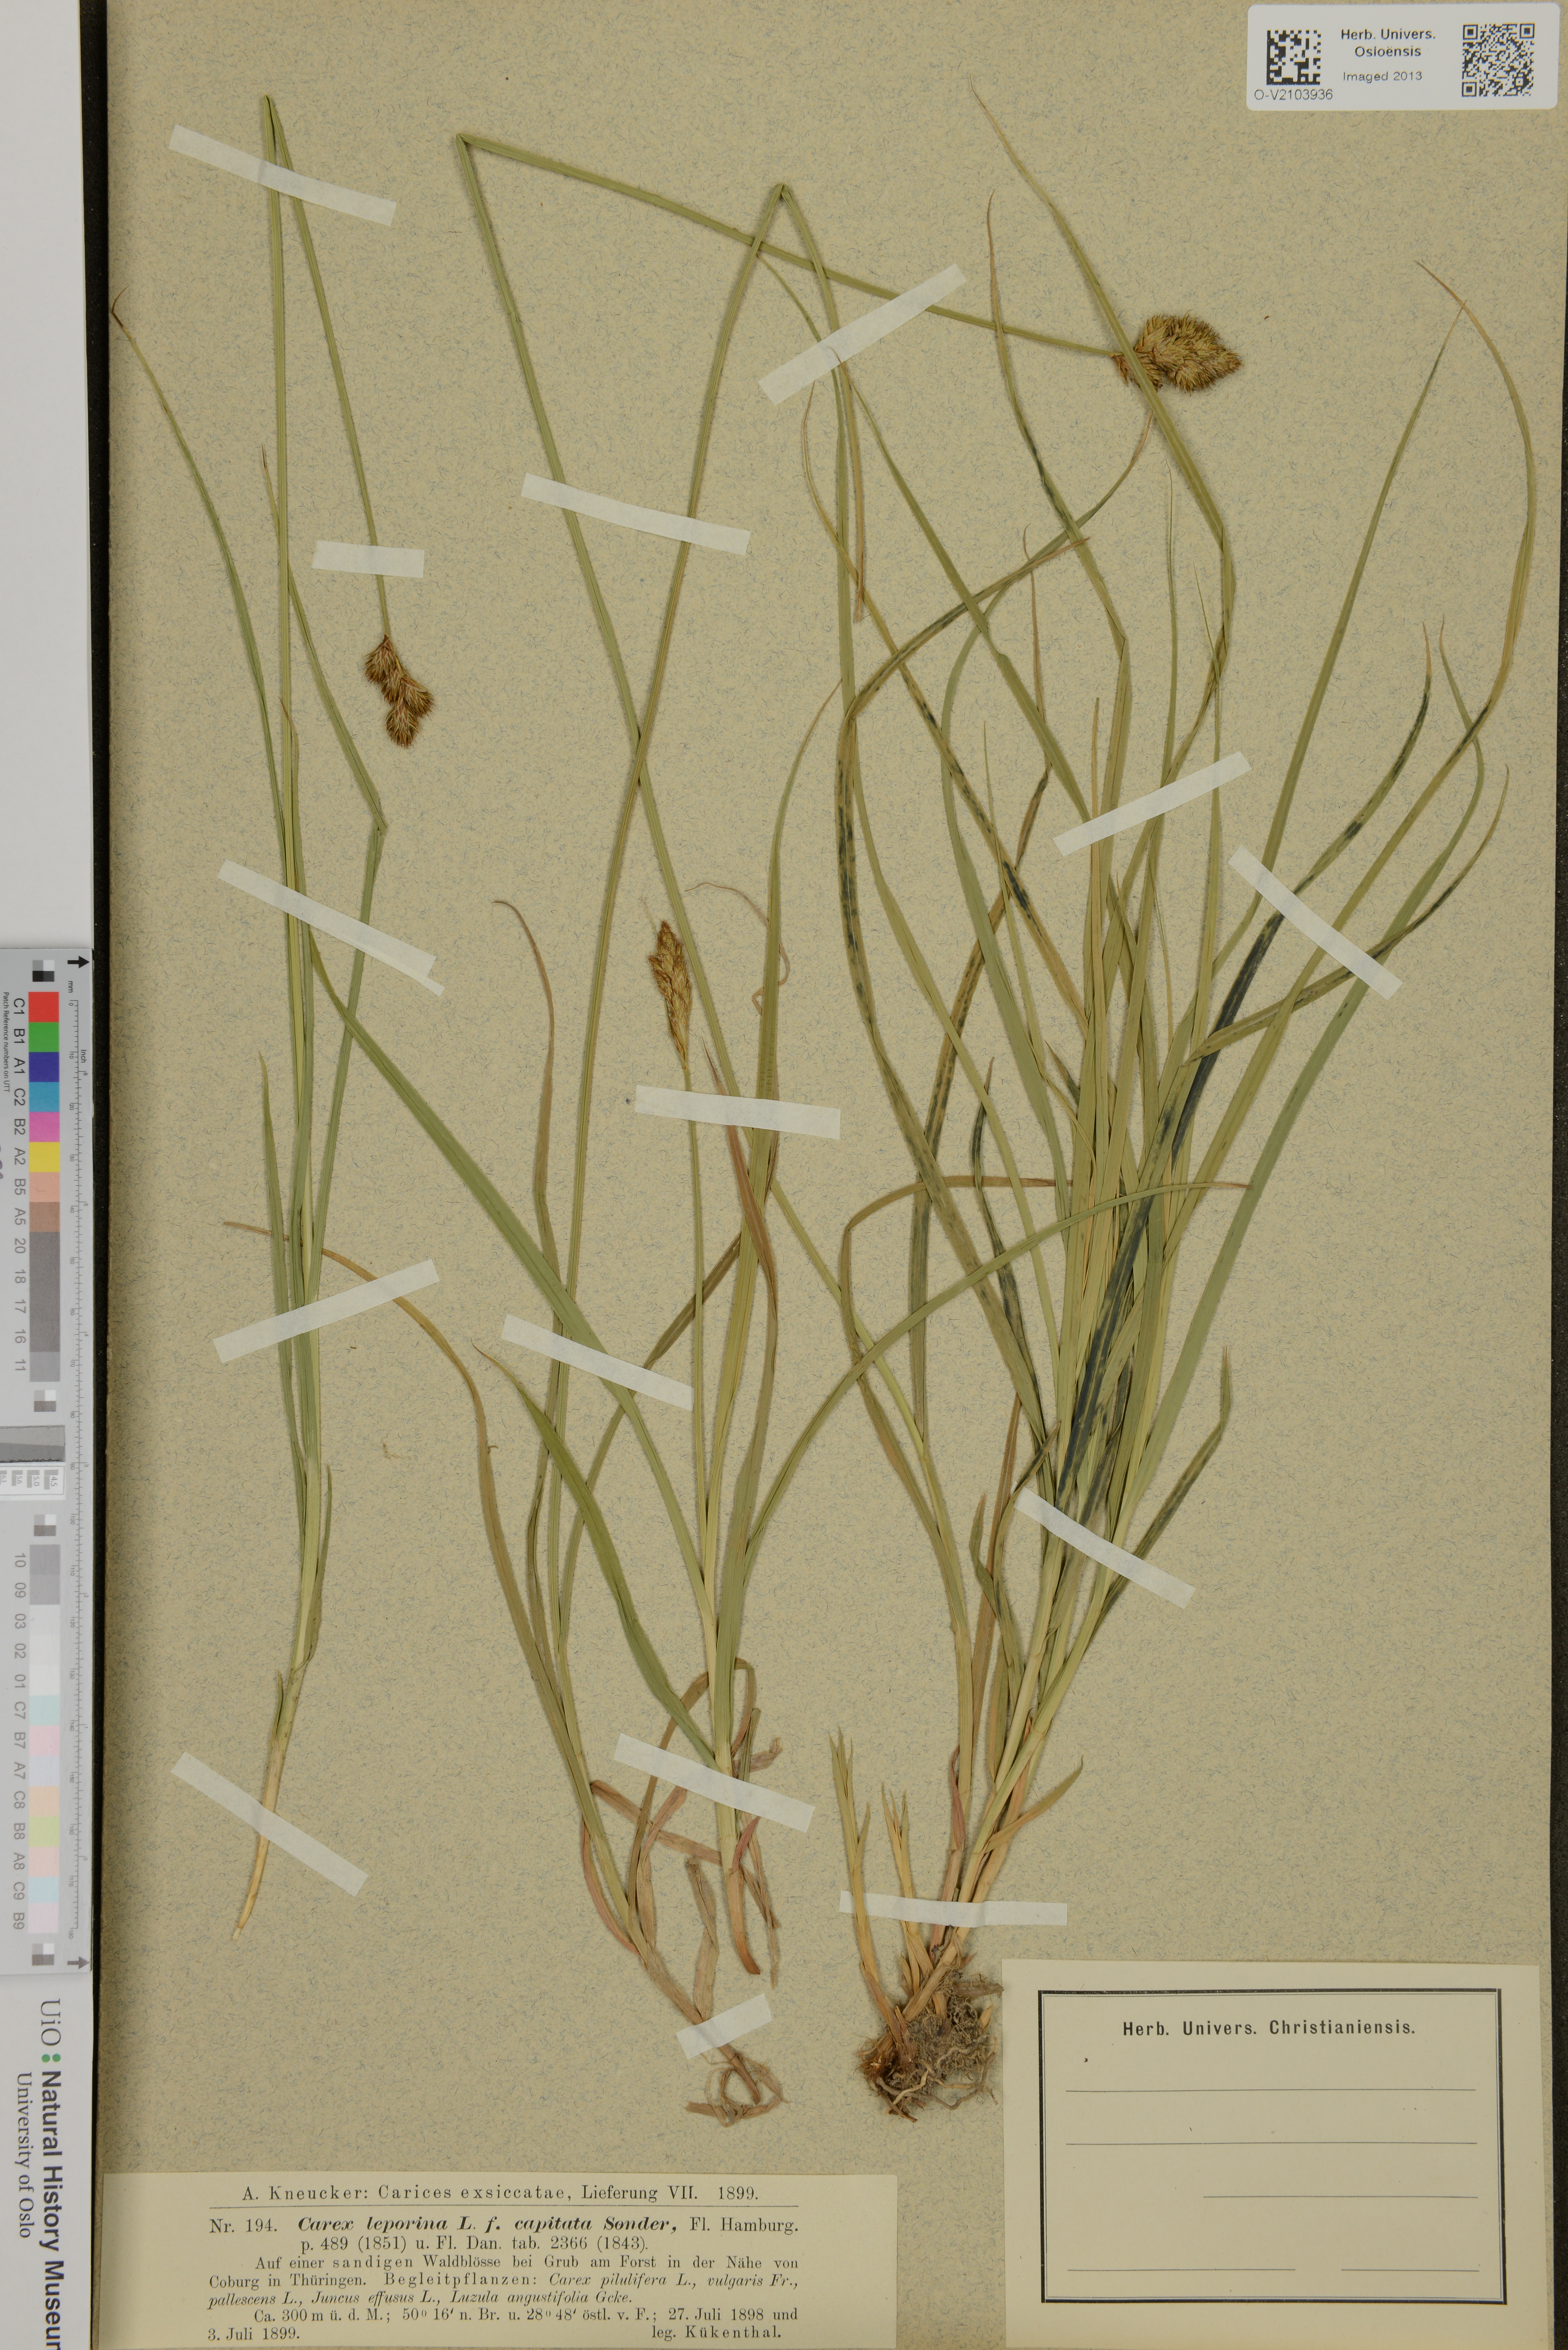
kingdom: Plantae
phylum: Tracheophyta
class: Liliopsida
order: Poales
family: Cyperaceae
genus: Carex
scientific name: Carex leporina
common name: Oval sedge
